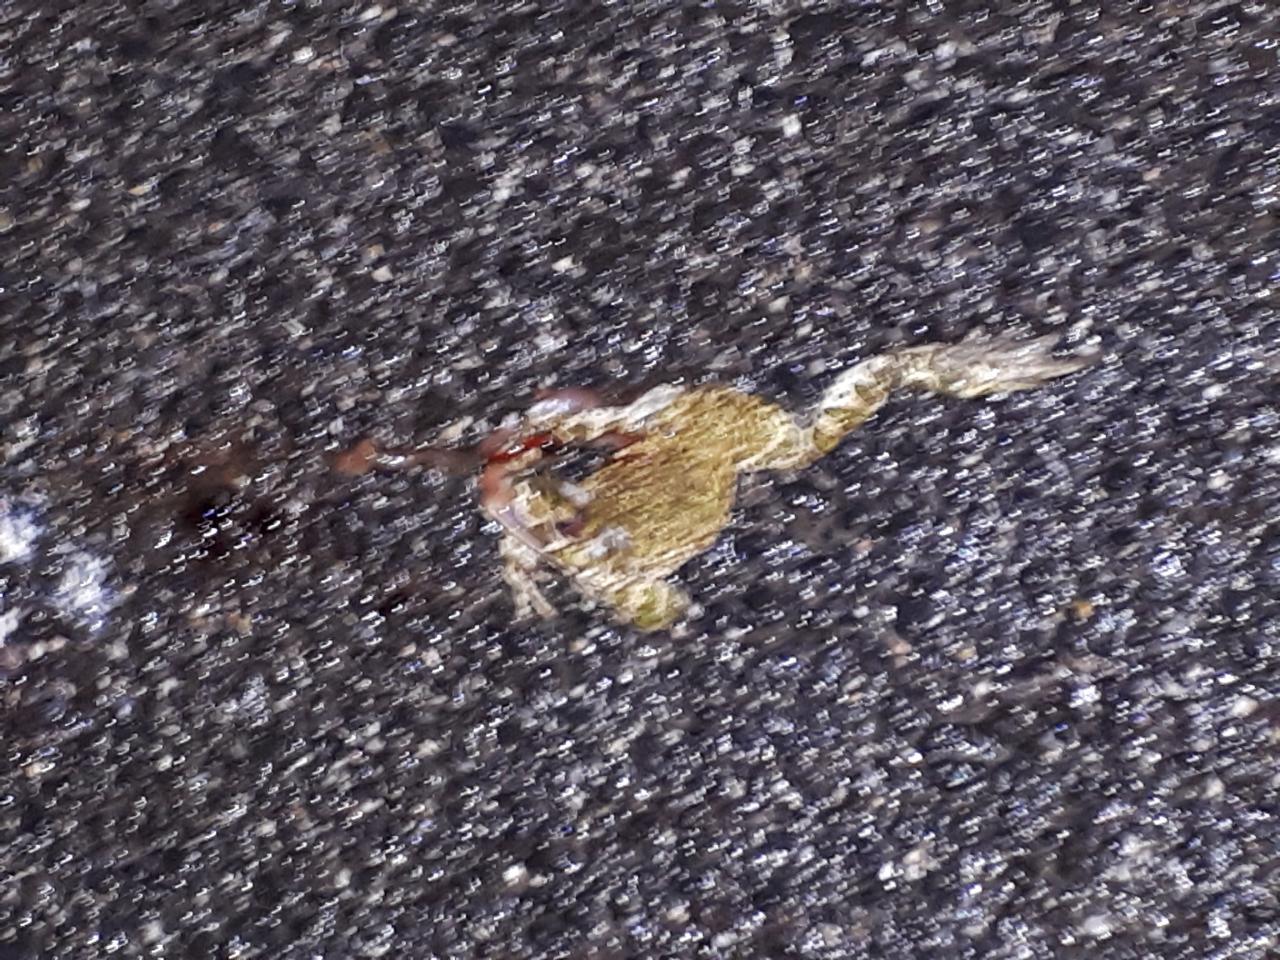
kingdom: Animalia
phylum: Chordata
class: Amphibia
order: Anura
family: Bufonidae
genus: Bufotes
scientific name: Bufotes viridis
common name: European green toad
